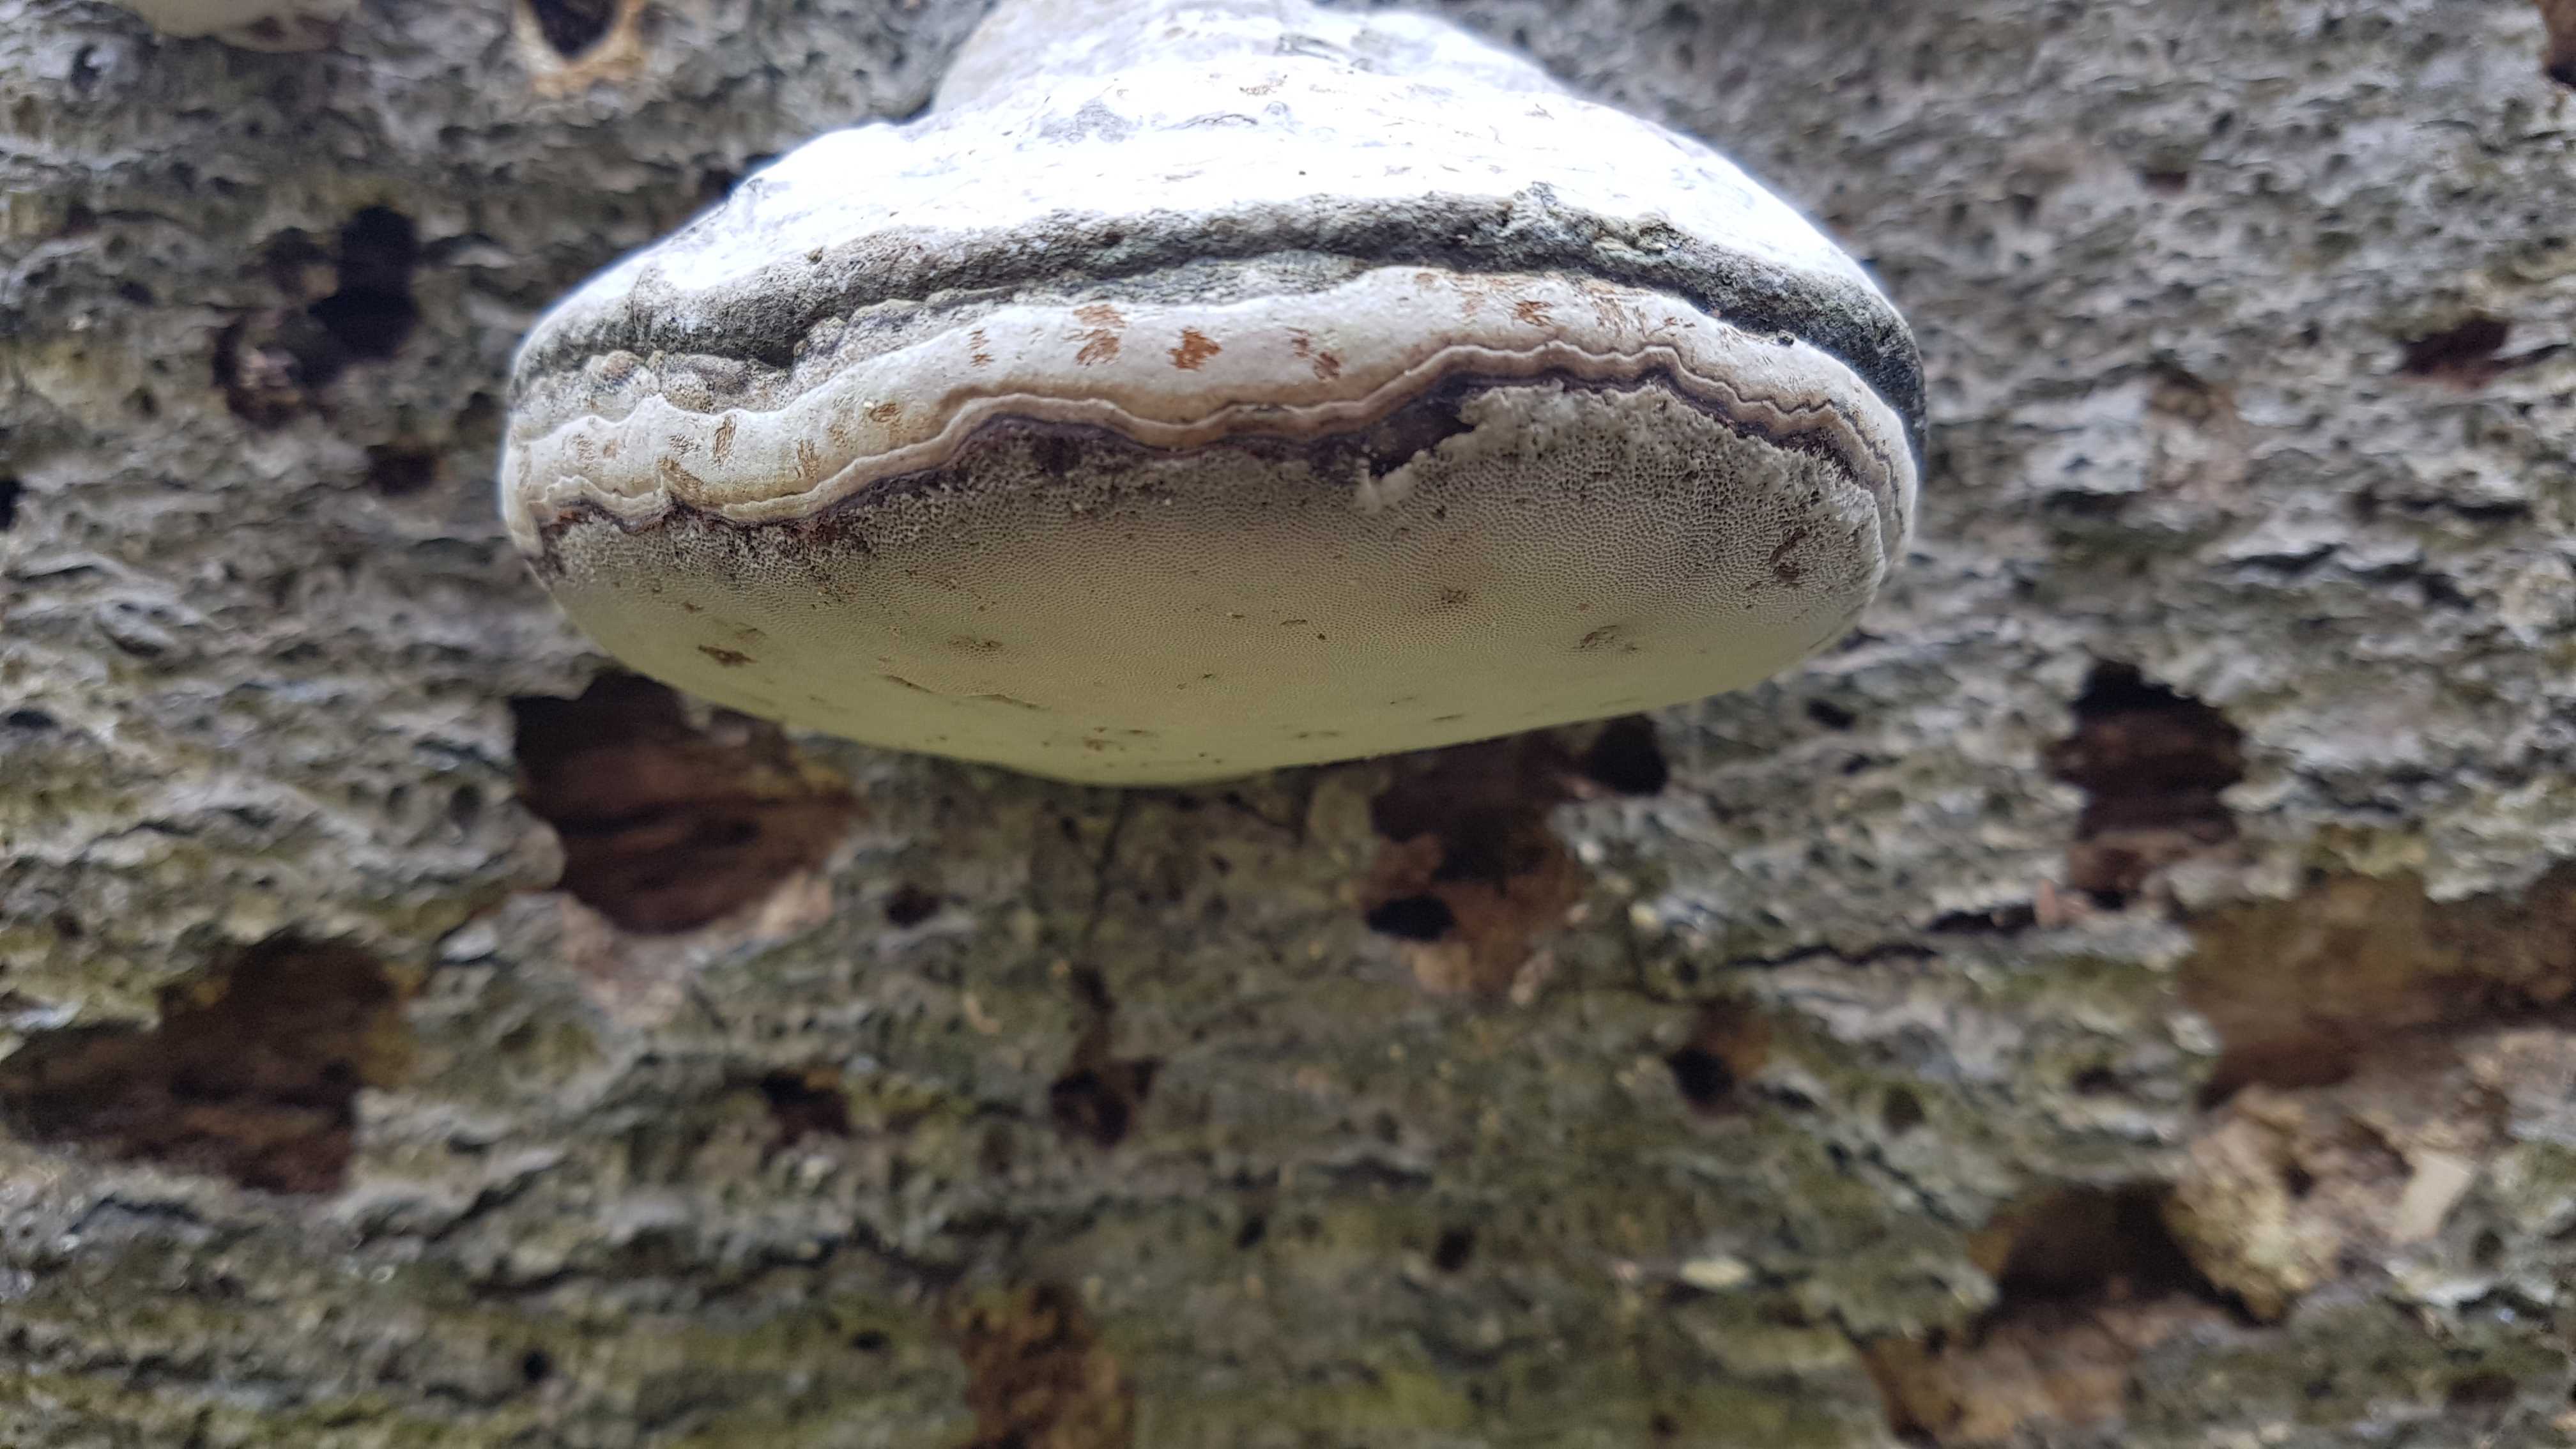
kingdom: Fungi
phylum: Basidiomycota
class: Agaricomycetes
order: Polyporales
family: Polyporaceae
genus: Fomes
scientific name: Fomes fomentarius
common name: tøndersvamp
